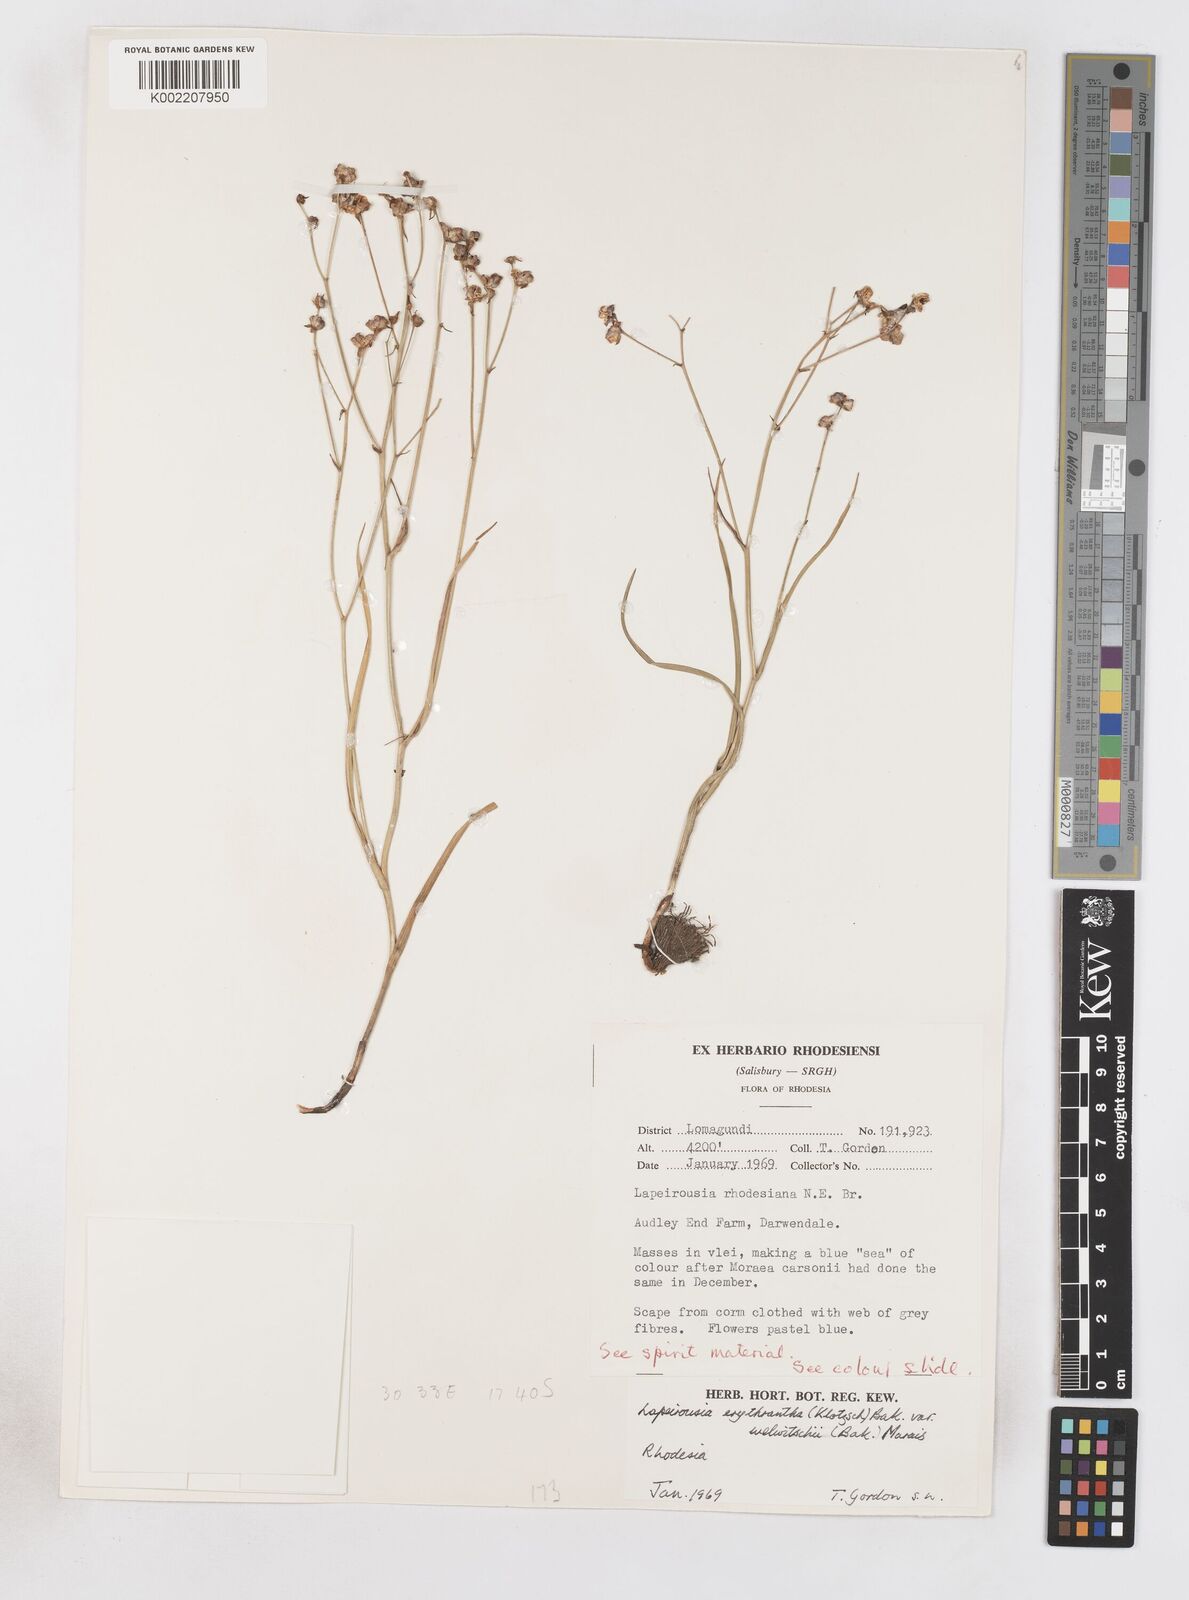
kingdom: Plantae
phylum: Tracheophyta
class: Liliopsida
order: Asparagales
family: Iridaceae
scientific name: Iridaceae
